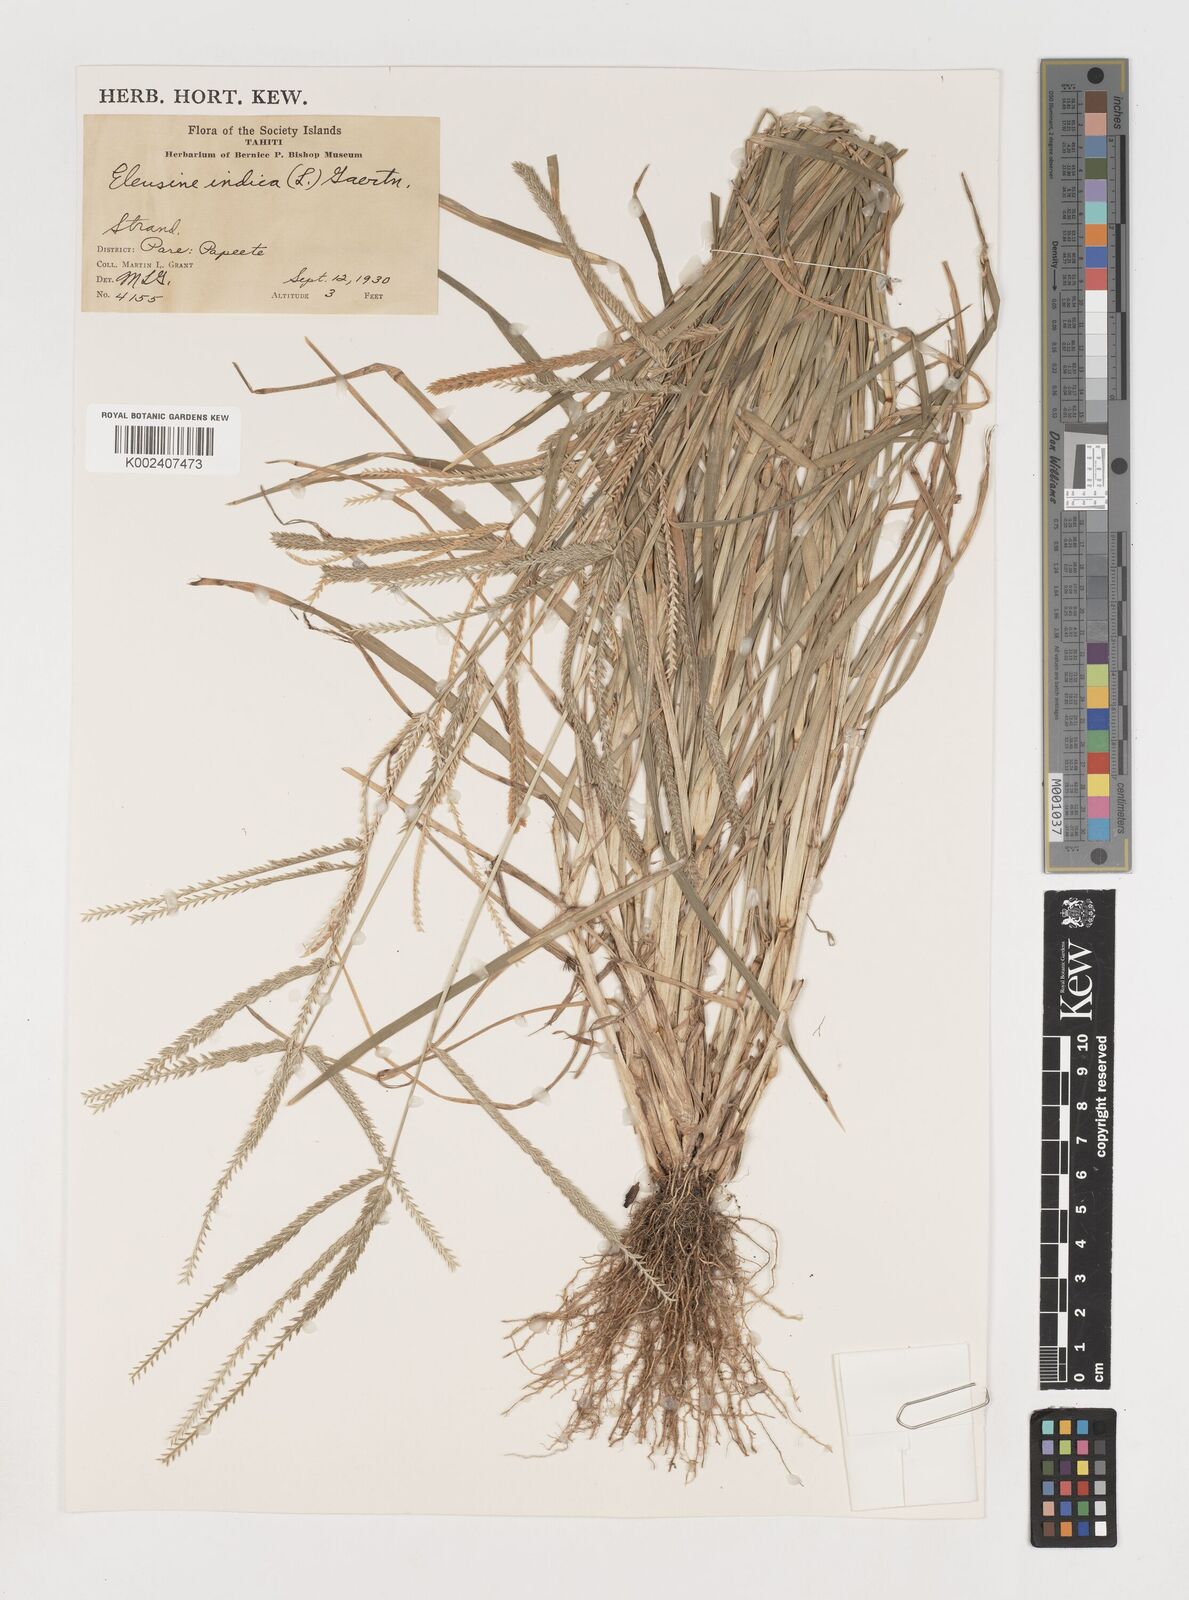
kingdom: Plantae
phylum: Tracheophyta
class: Liliopsida
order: Poales
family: Poaceae
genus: Eleusine
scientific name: Eleusine indica
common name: Yard-grass
